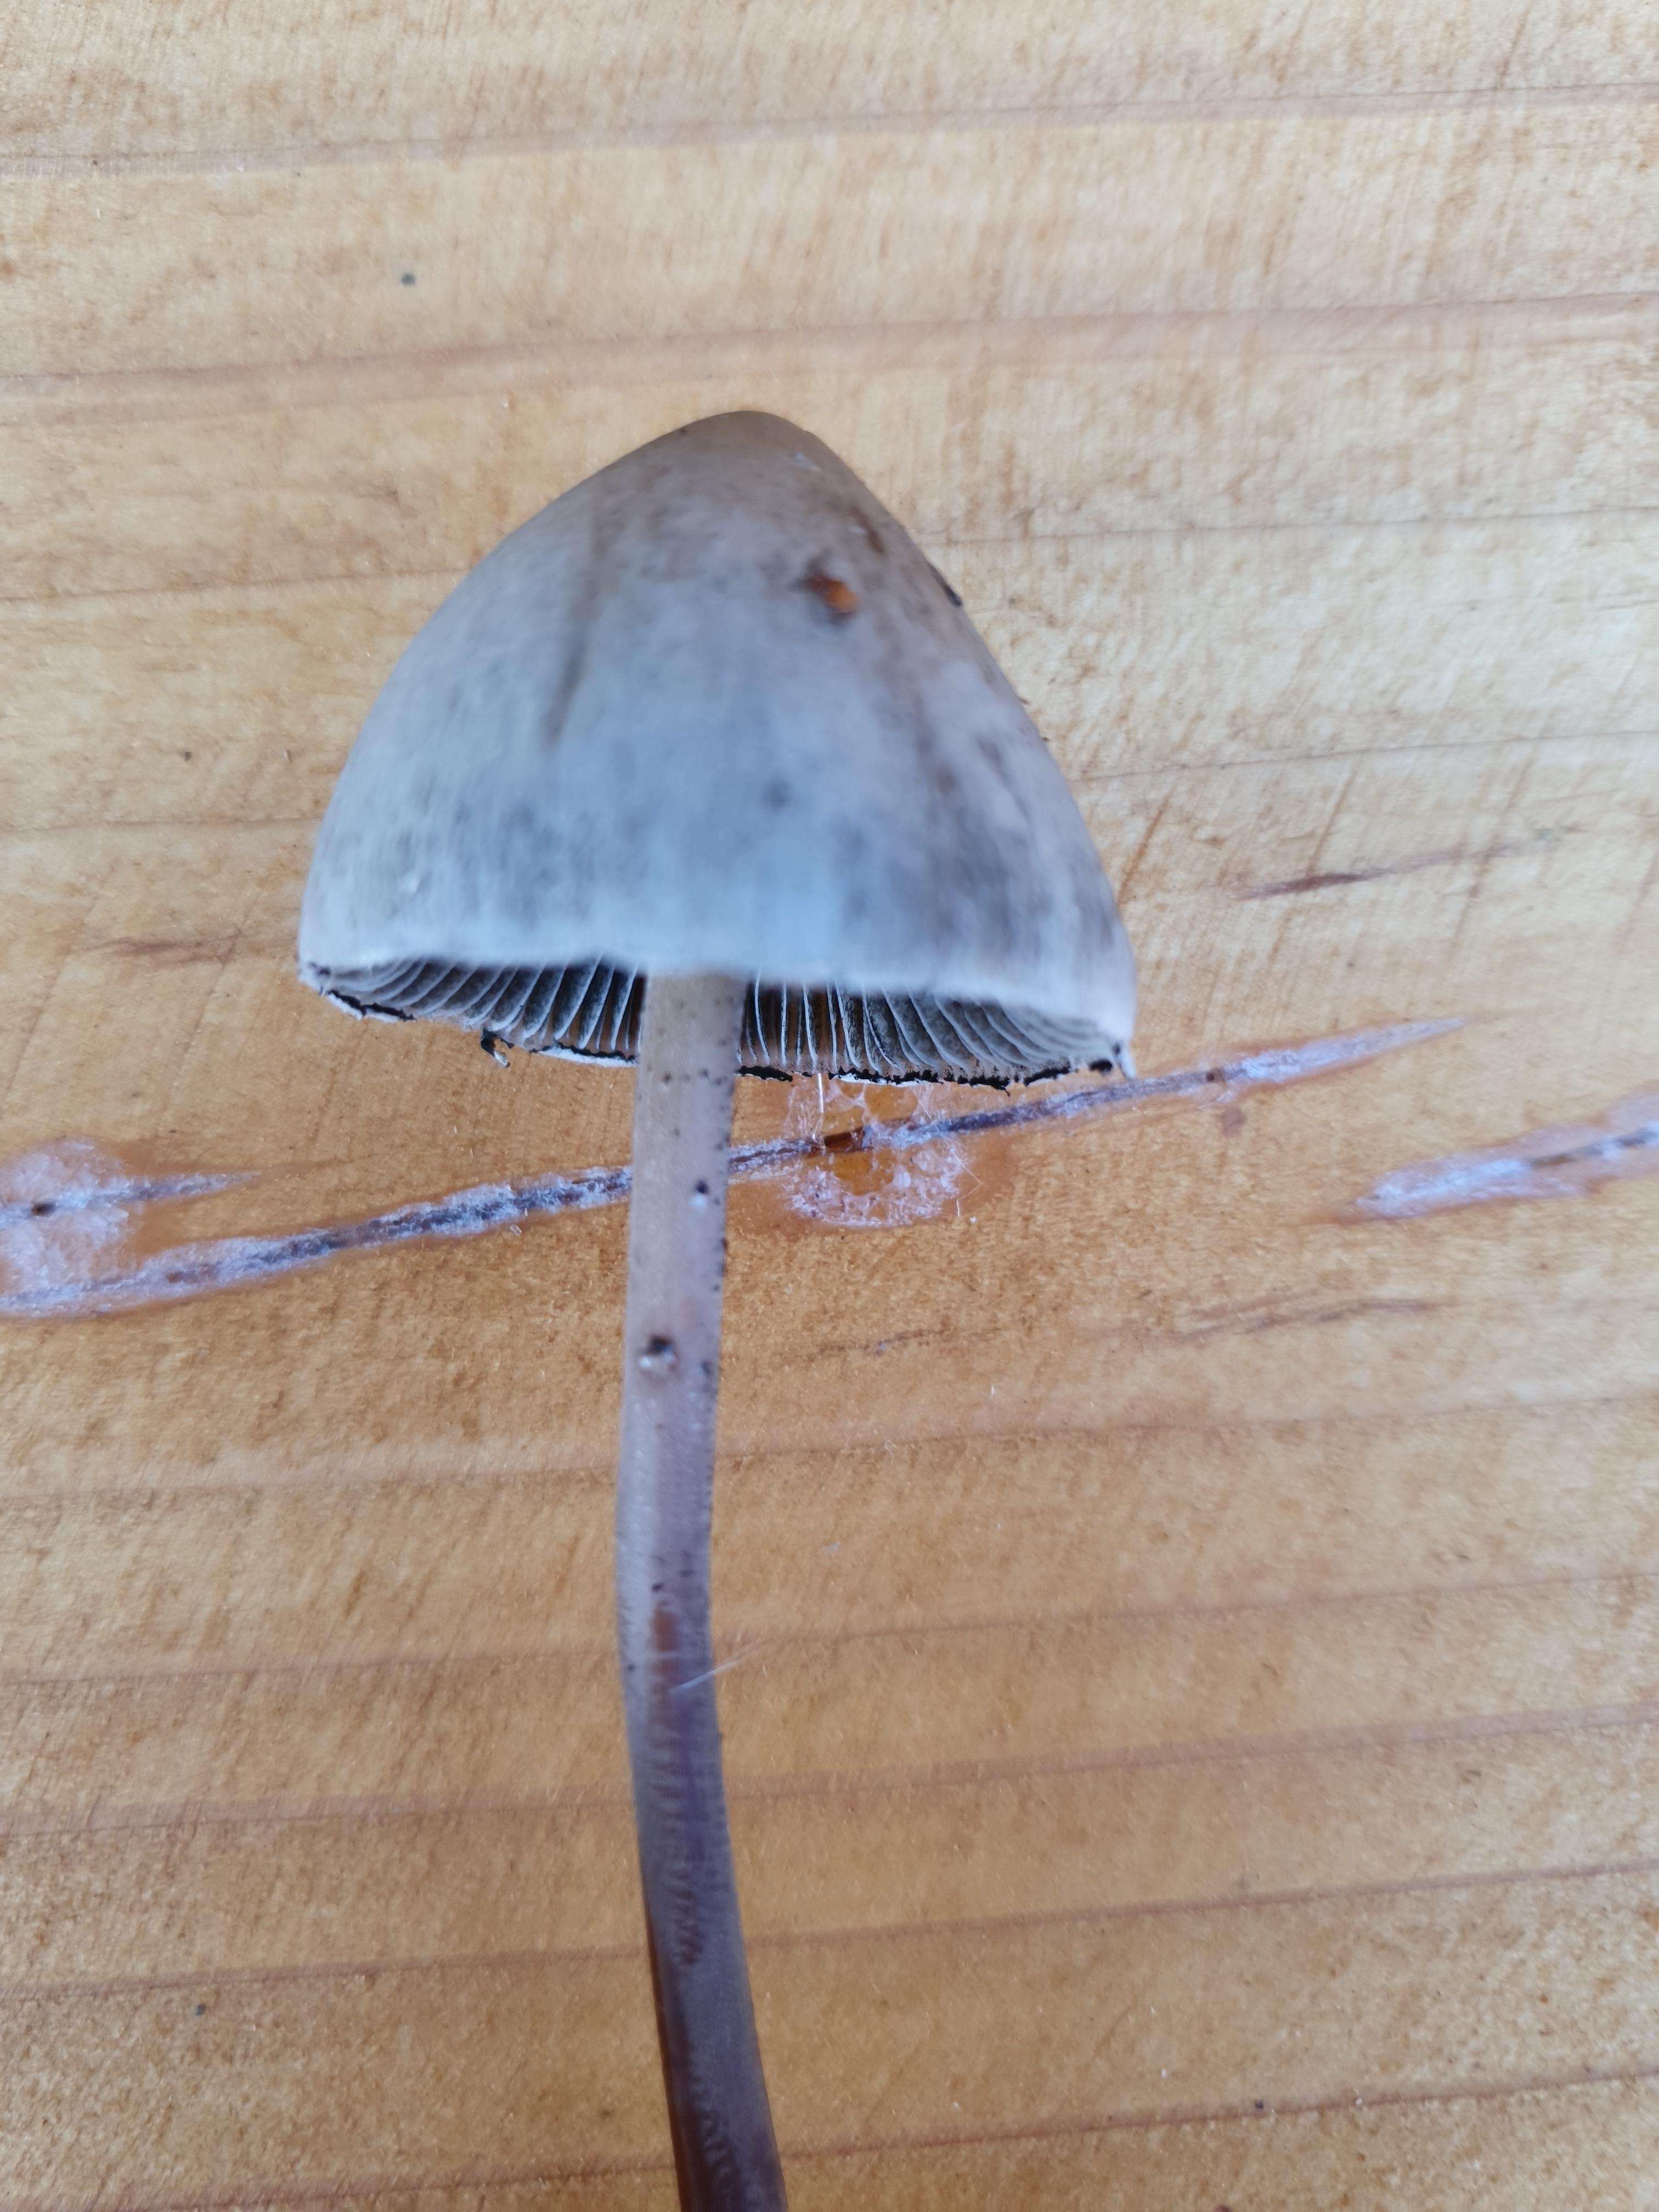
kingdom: Fungi
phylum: Basidiomycota
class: Agaricomycetes
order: Agaricales
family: Bolbitiaceae
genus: Panaeolus
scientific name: Panaeolus papilionaceus
